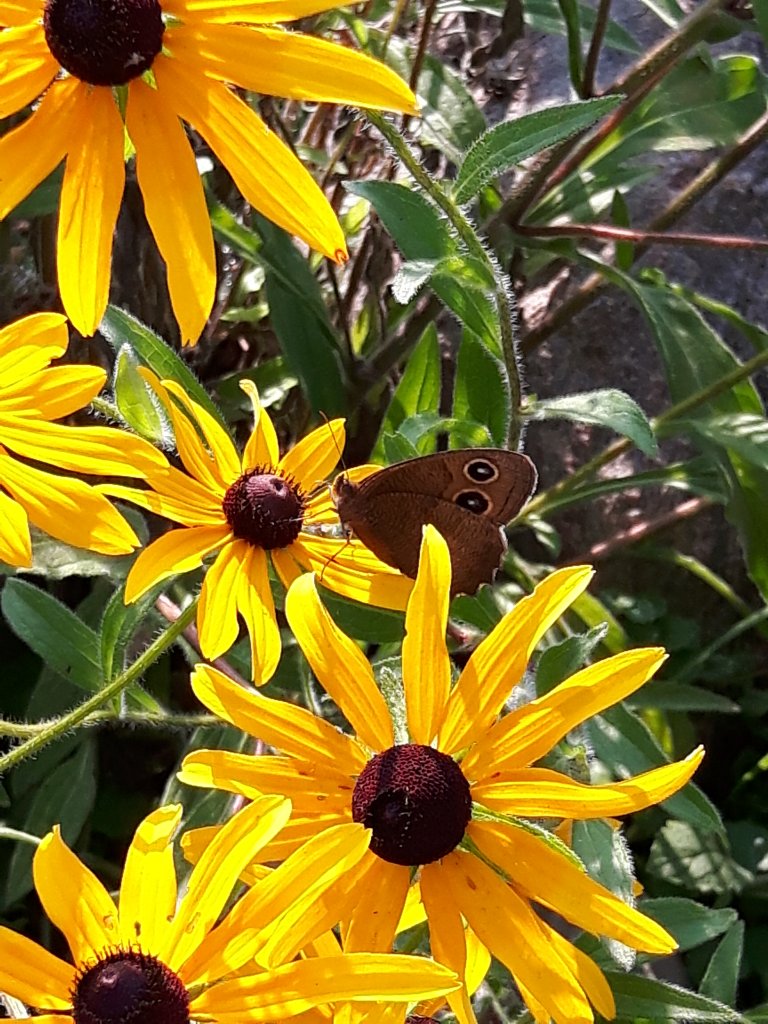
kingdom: Animalia
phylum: Arthropoda
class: Insecta
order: Lepidoptera
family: Nymphalidae
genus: Cercyonis
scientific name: Cercyonis pegala
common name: Common Wood-Nymph
